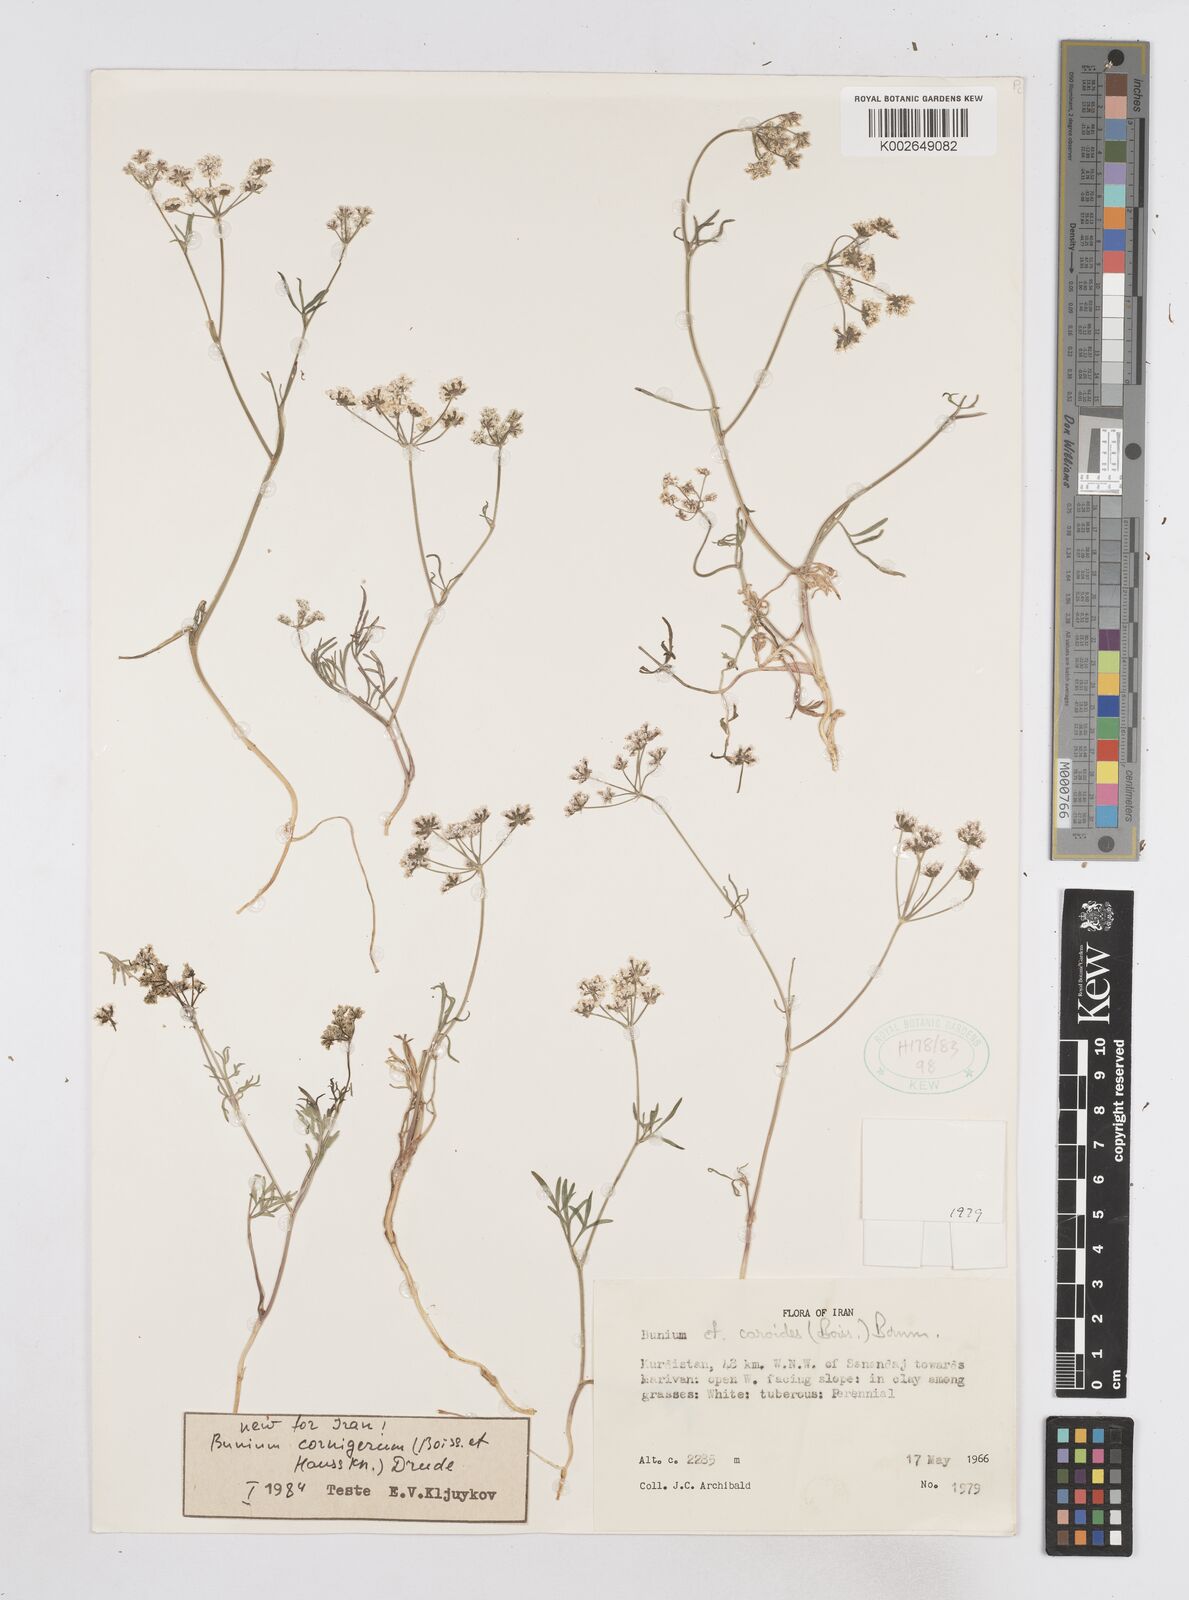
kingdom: Plantae
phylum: Tracheophyta
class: Magnoliopsida
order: Apiales
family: Apiaceae
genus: Bunium
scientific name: Bunium cornigerum
